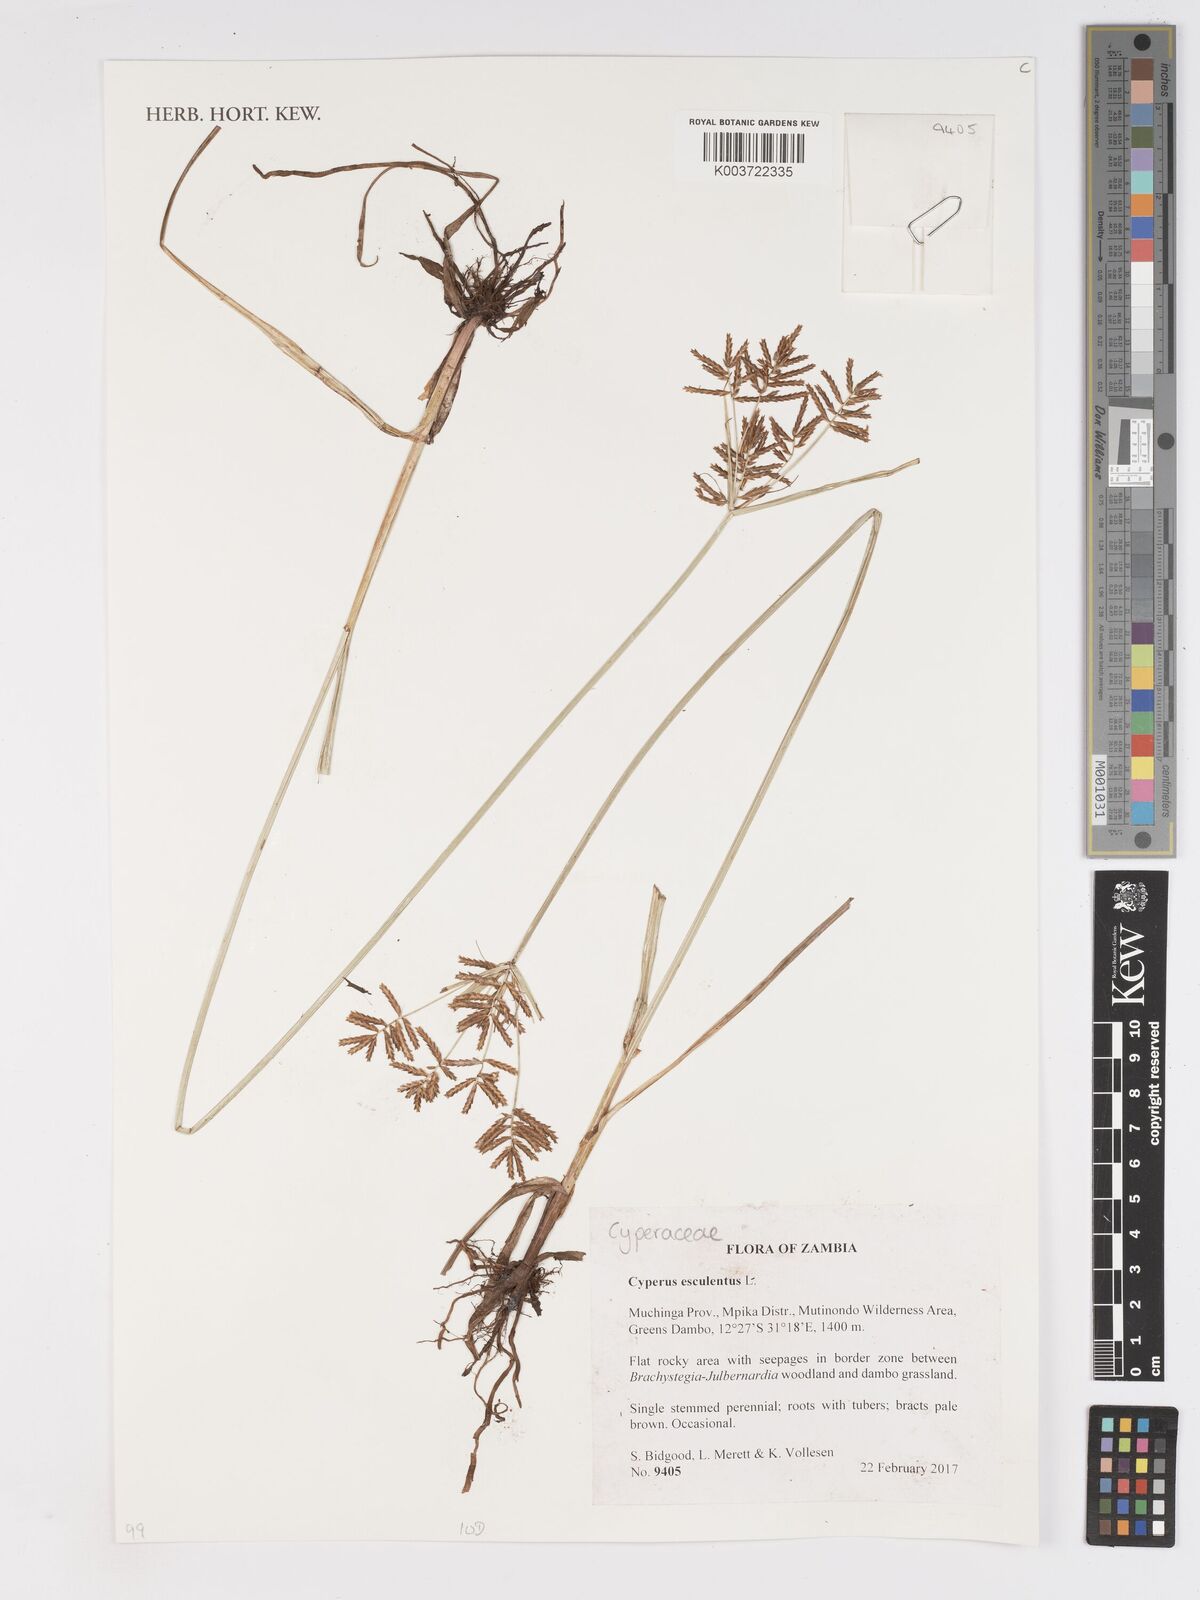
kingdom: Plantae
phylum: Tracheophyta
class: Liliopsida
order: Poales
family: Cyperaceae
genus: Cyperus
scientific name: Cyperus esculentus
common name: Yellow nutsedge
